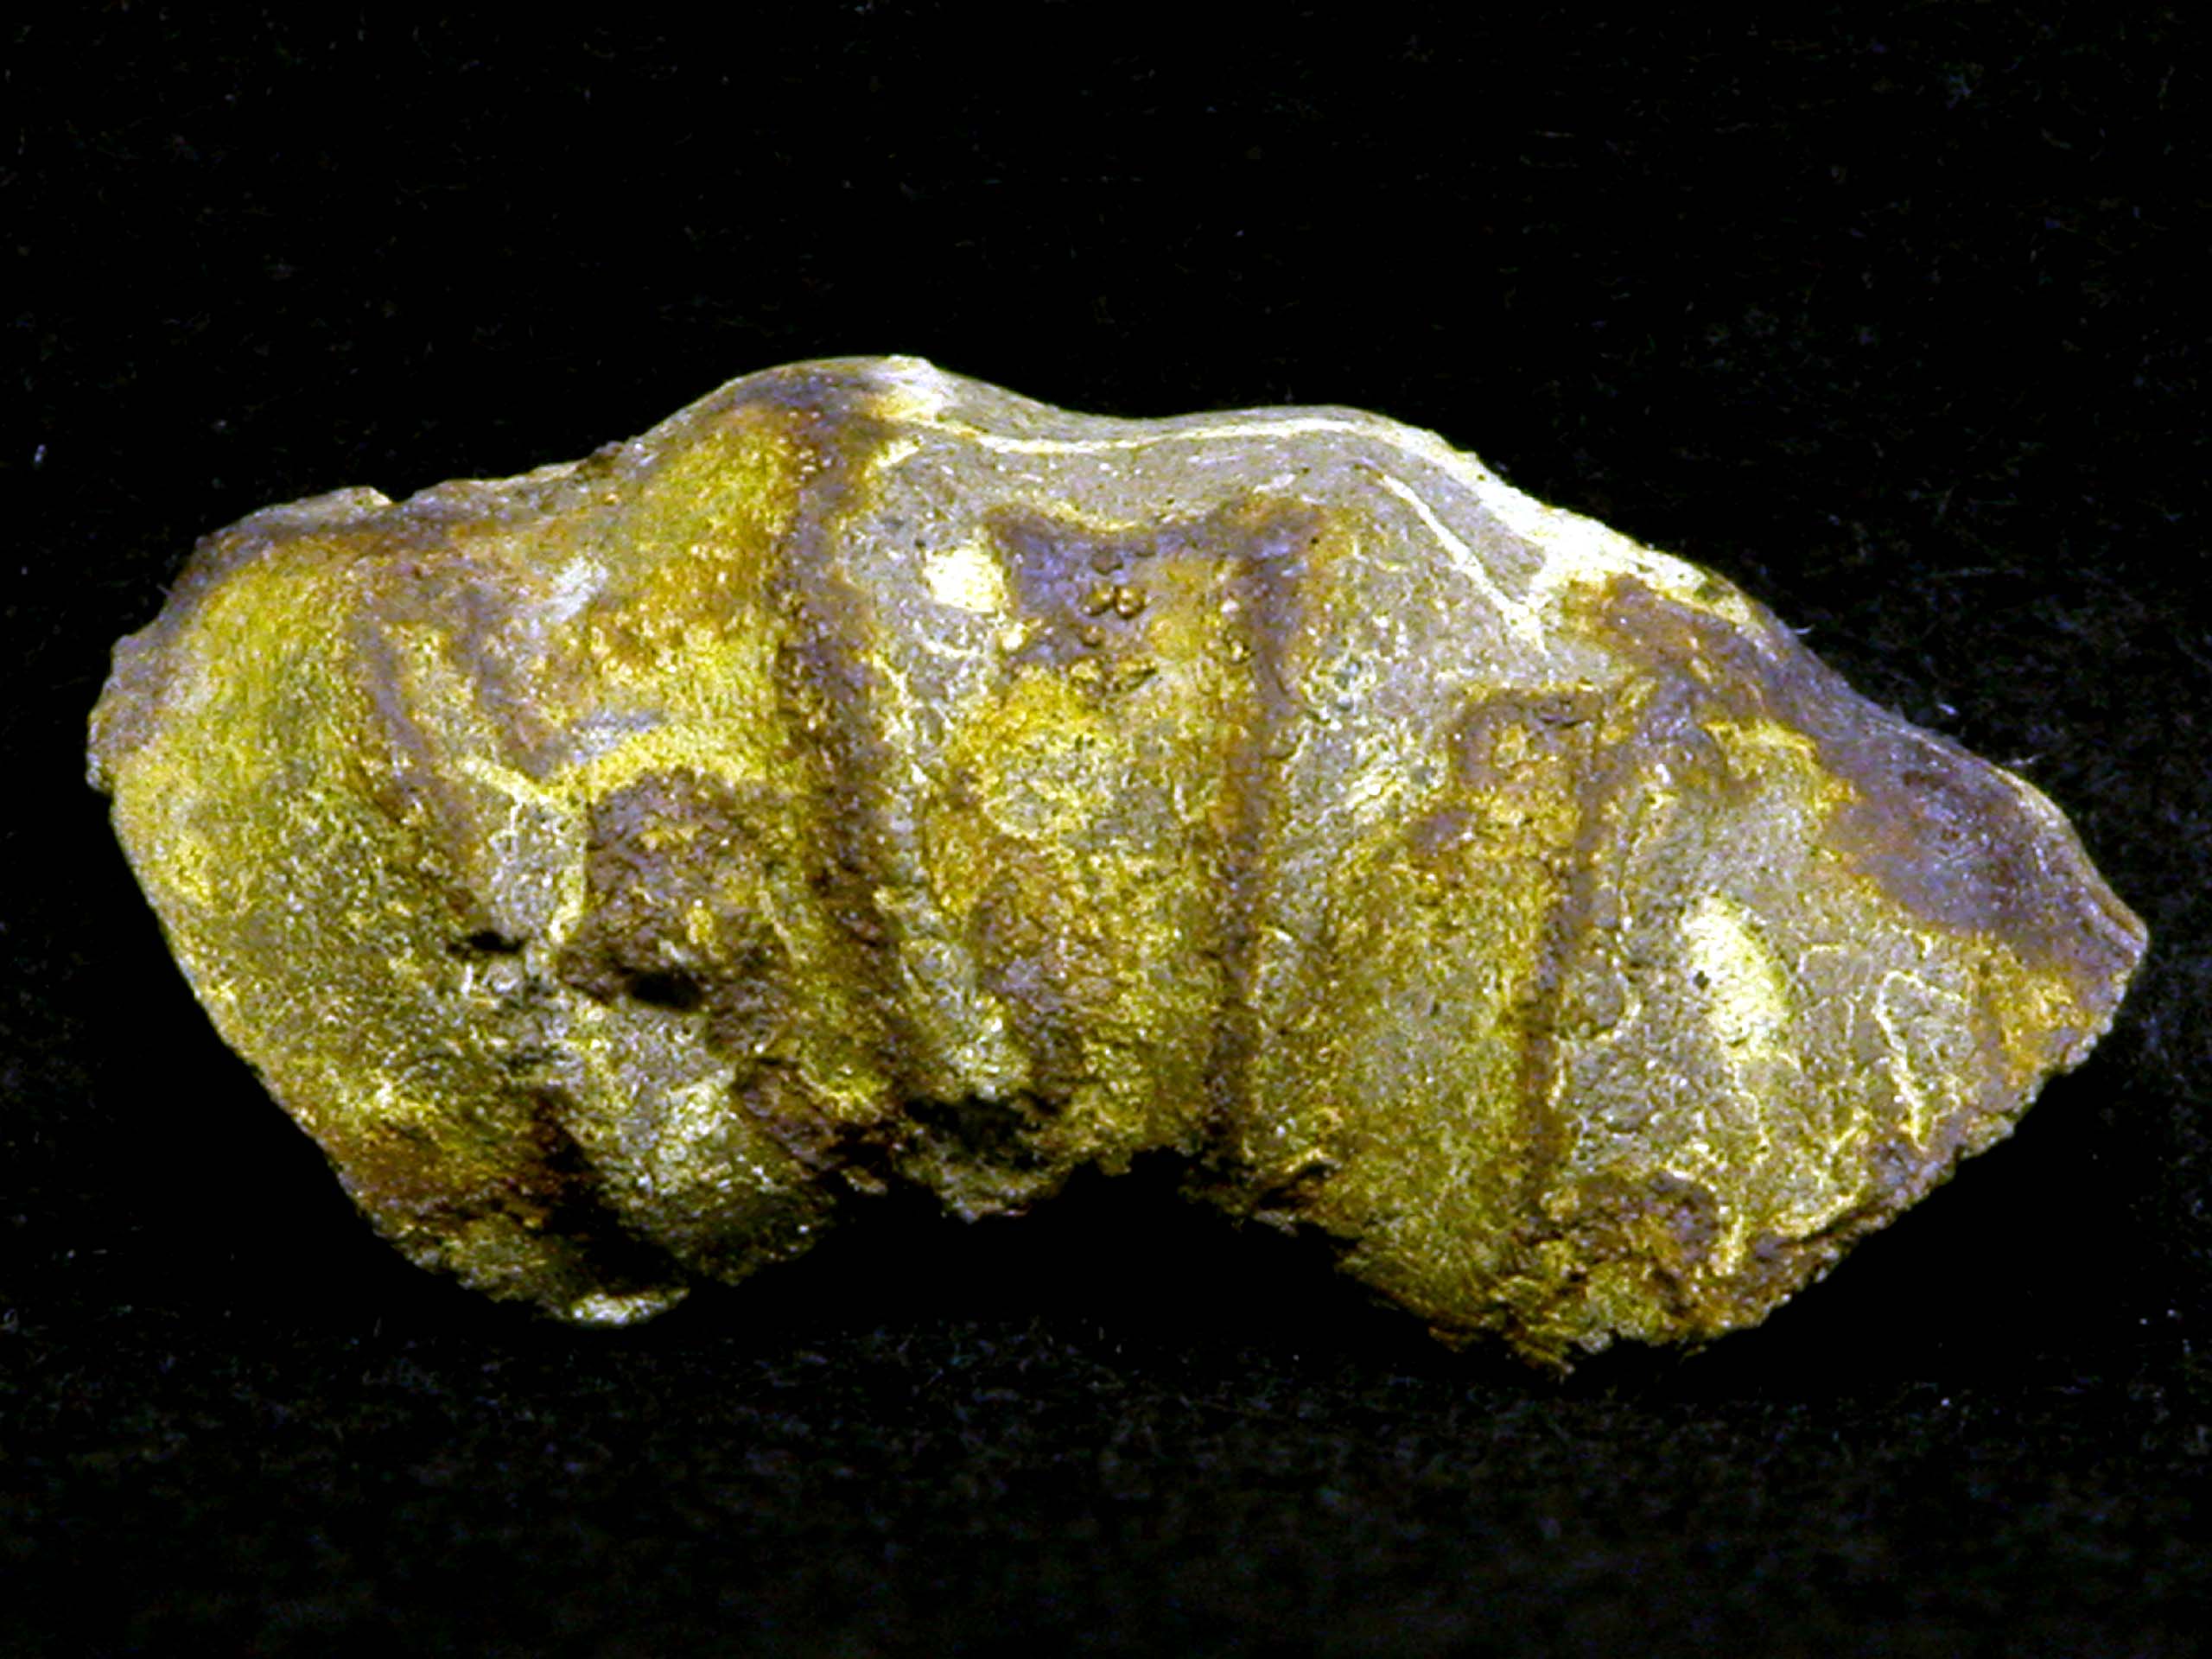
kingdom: Animalia
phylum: Mollusca
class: Cephalopoda
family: Liparoceratidae
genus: Amblycoceras
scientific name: Amblycoceras
